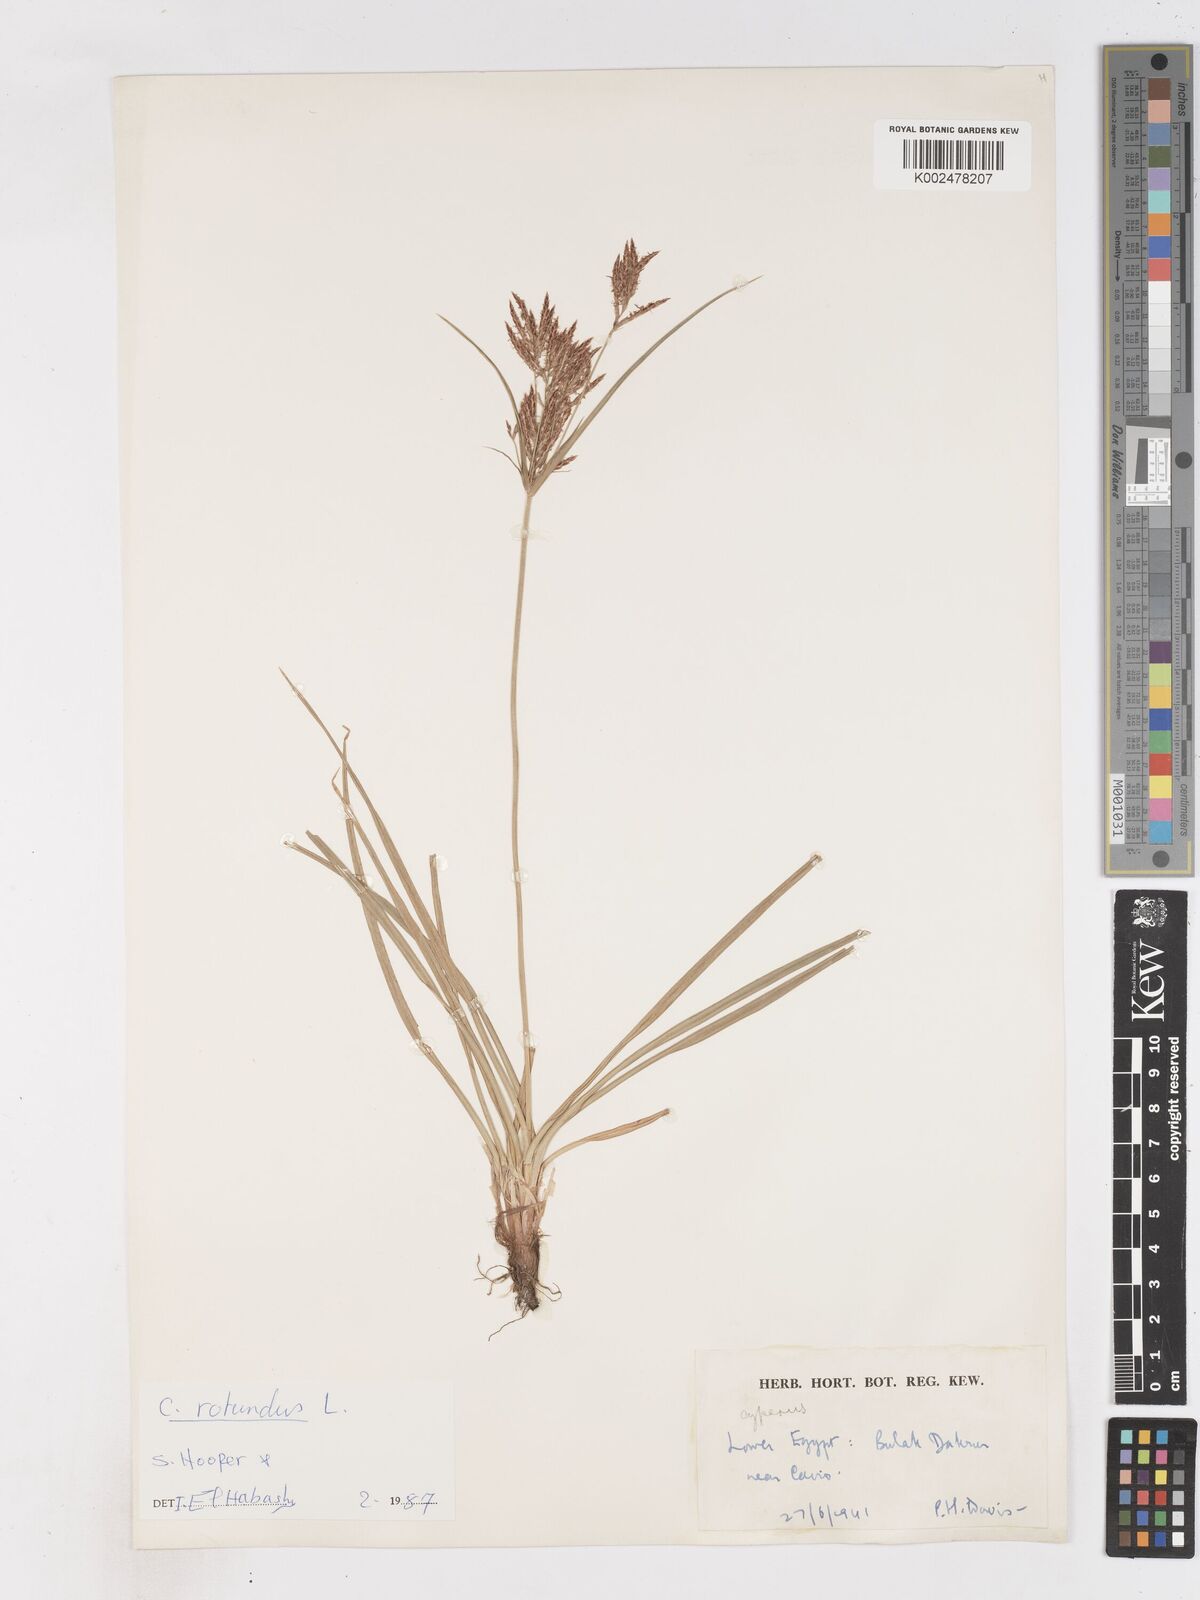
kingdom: Plantae
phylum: Tracheophyta
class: Liliopsida
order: Poales
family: Cyperaceae
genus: Cyperus
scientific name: Cyperus rotundus
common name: Nutgrass
